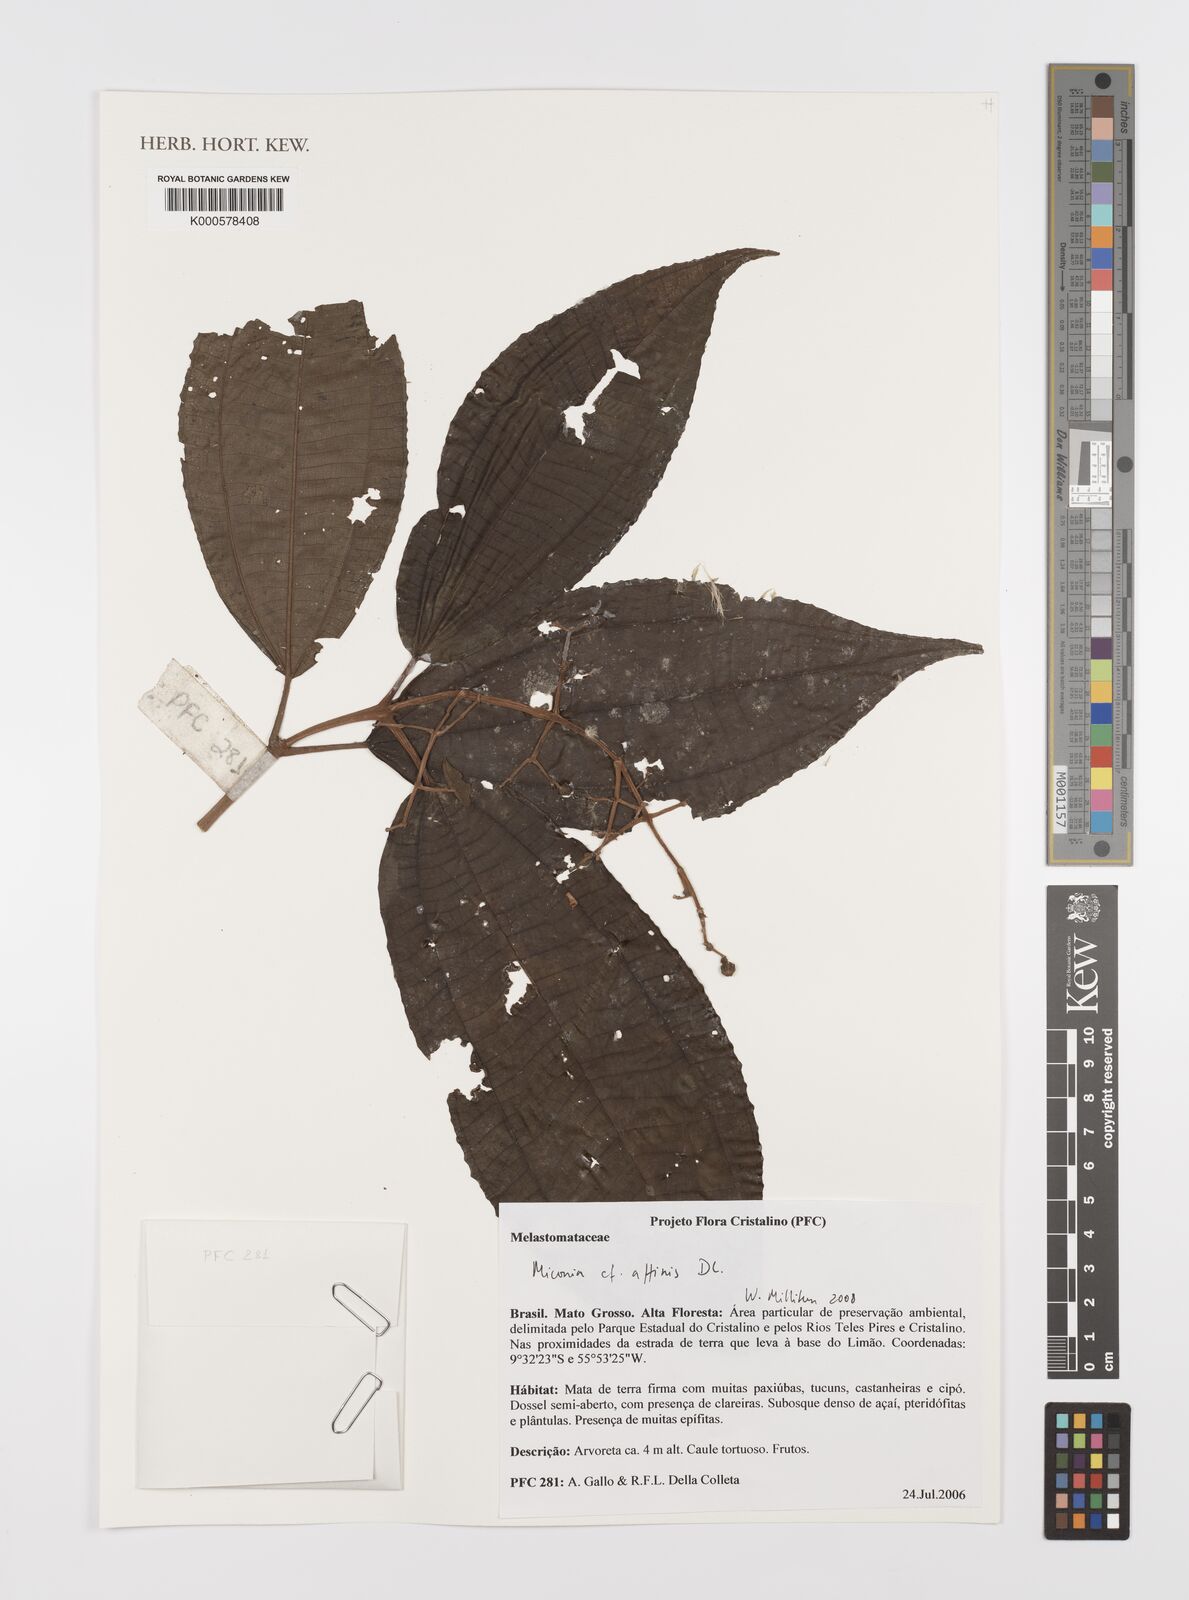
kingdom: Plantae
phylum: Tracheophyta
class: Magnoliopsida
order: Myrtales
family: Melastomataceae
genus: Miconia
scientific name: Miconia affinis
